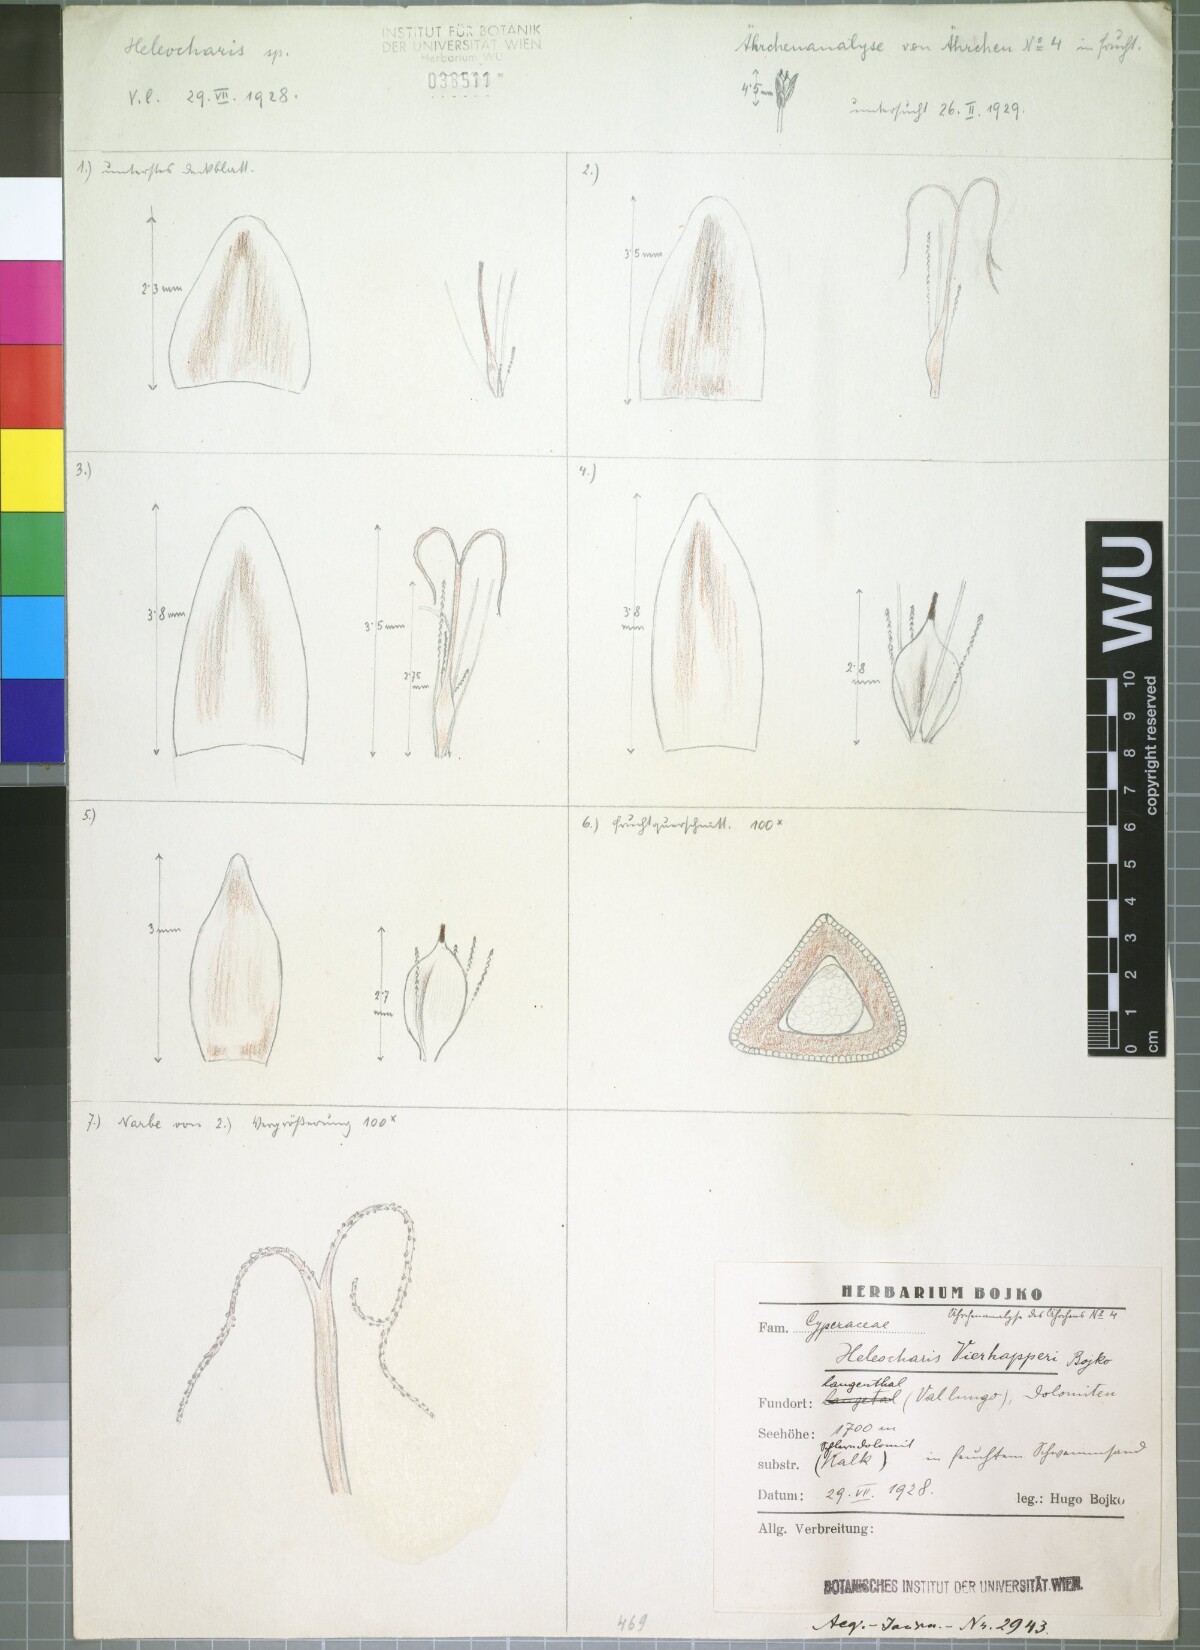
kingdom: Plantae
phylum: Tracheophyta
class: Liliopsida
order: Poales
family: Cyperaceae
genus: Eleocharis
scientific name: Eleocharis quinqueflora
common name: Few-flowered spike-rush
